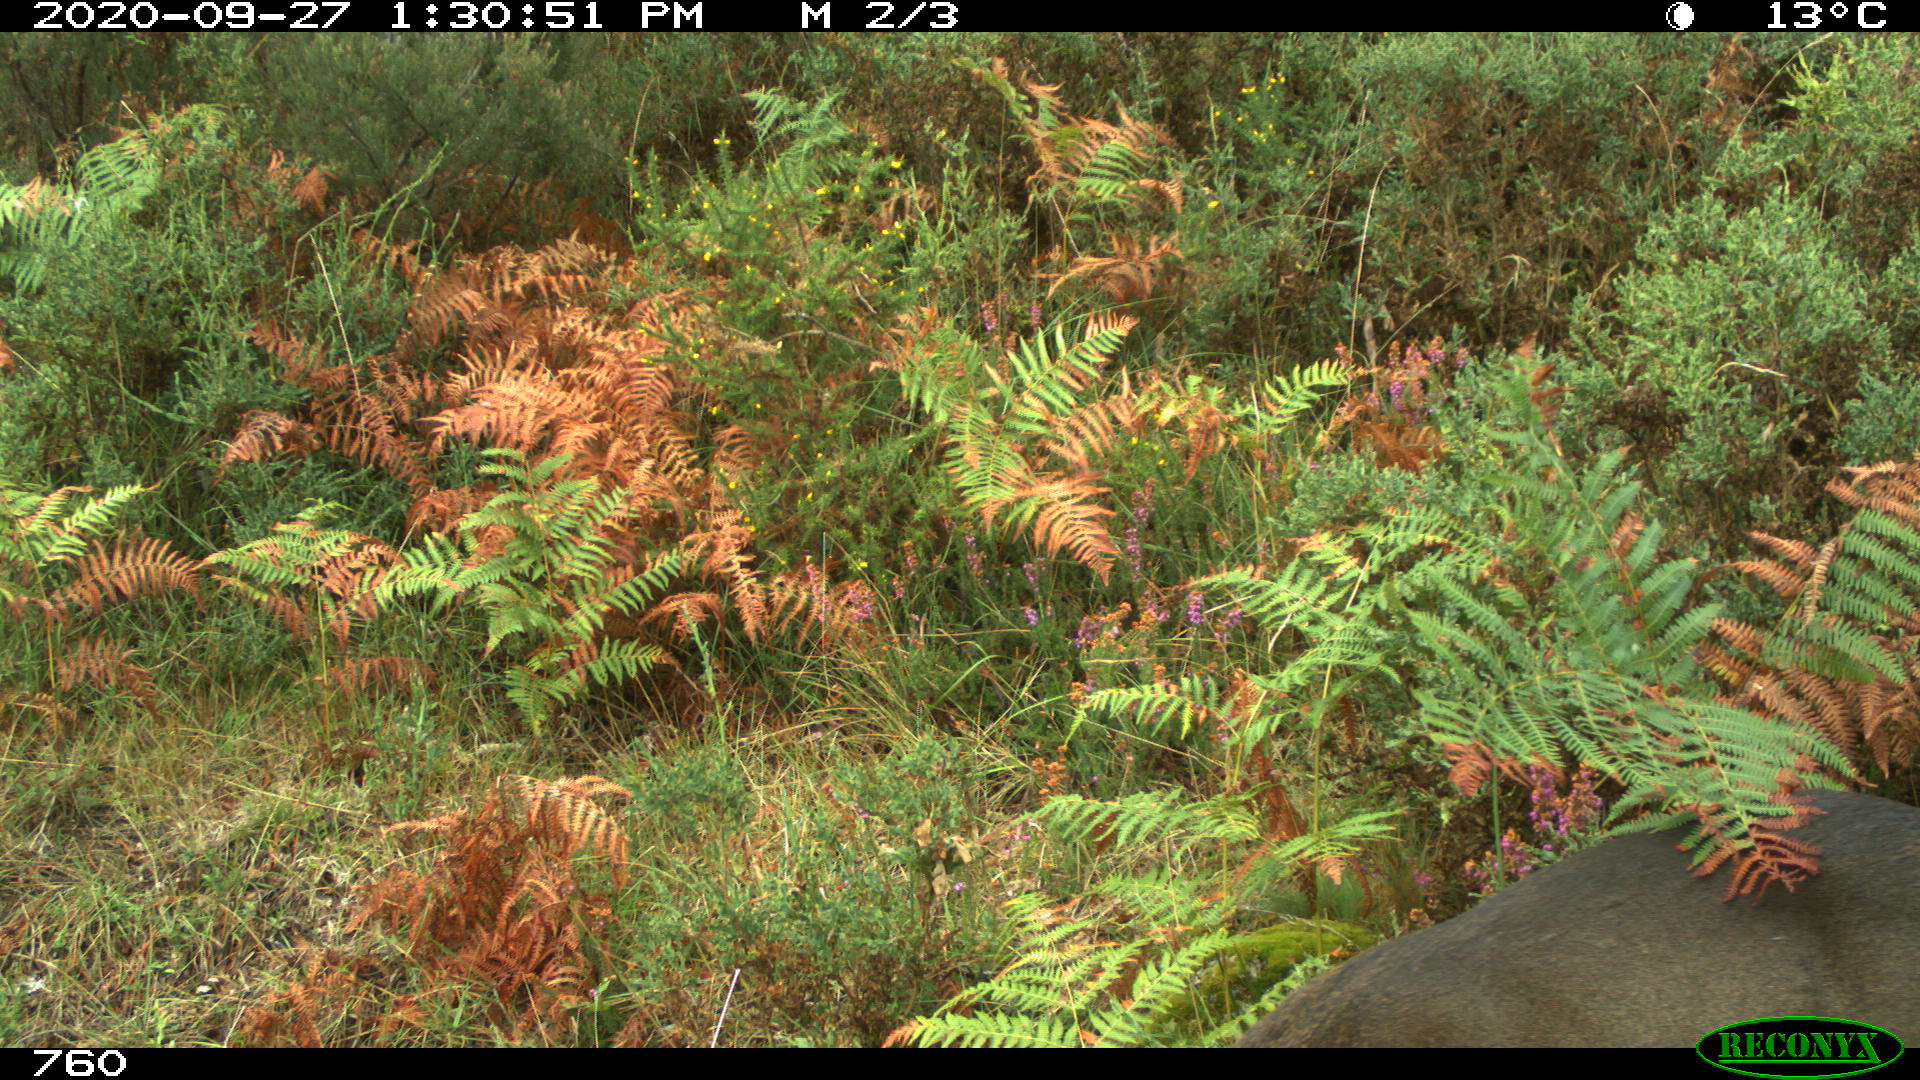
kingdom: Animalia
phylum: Chordata
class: Mammalia
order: Artiodactyla
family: Cervidae
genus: Capreolus
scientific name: Capreolus capreolus
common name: Western roe deer
